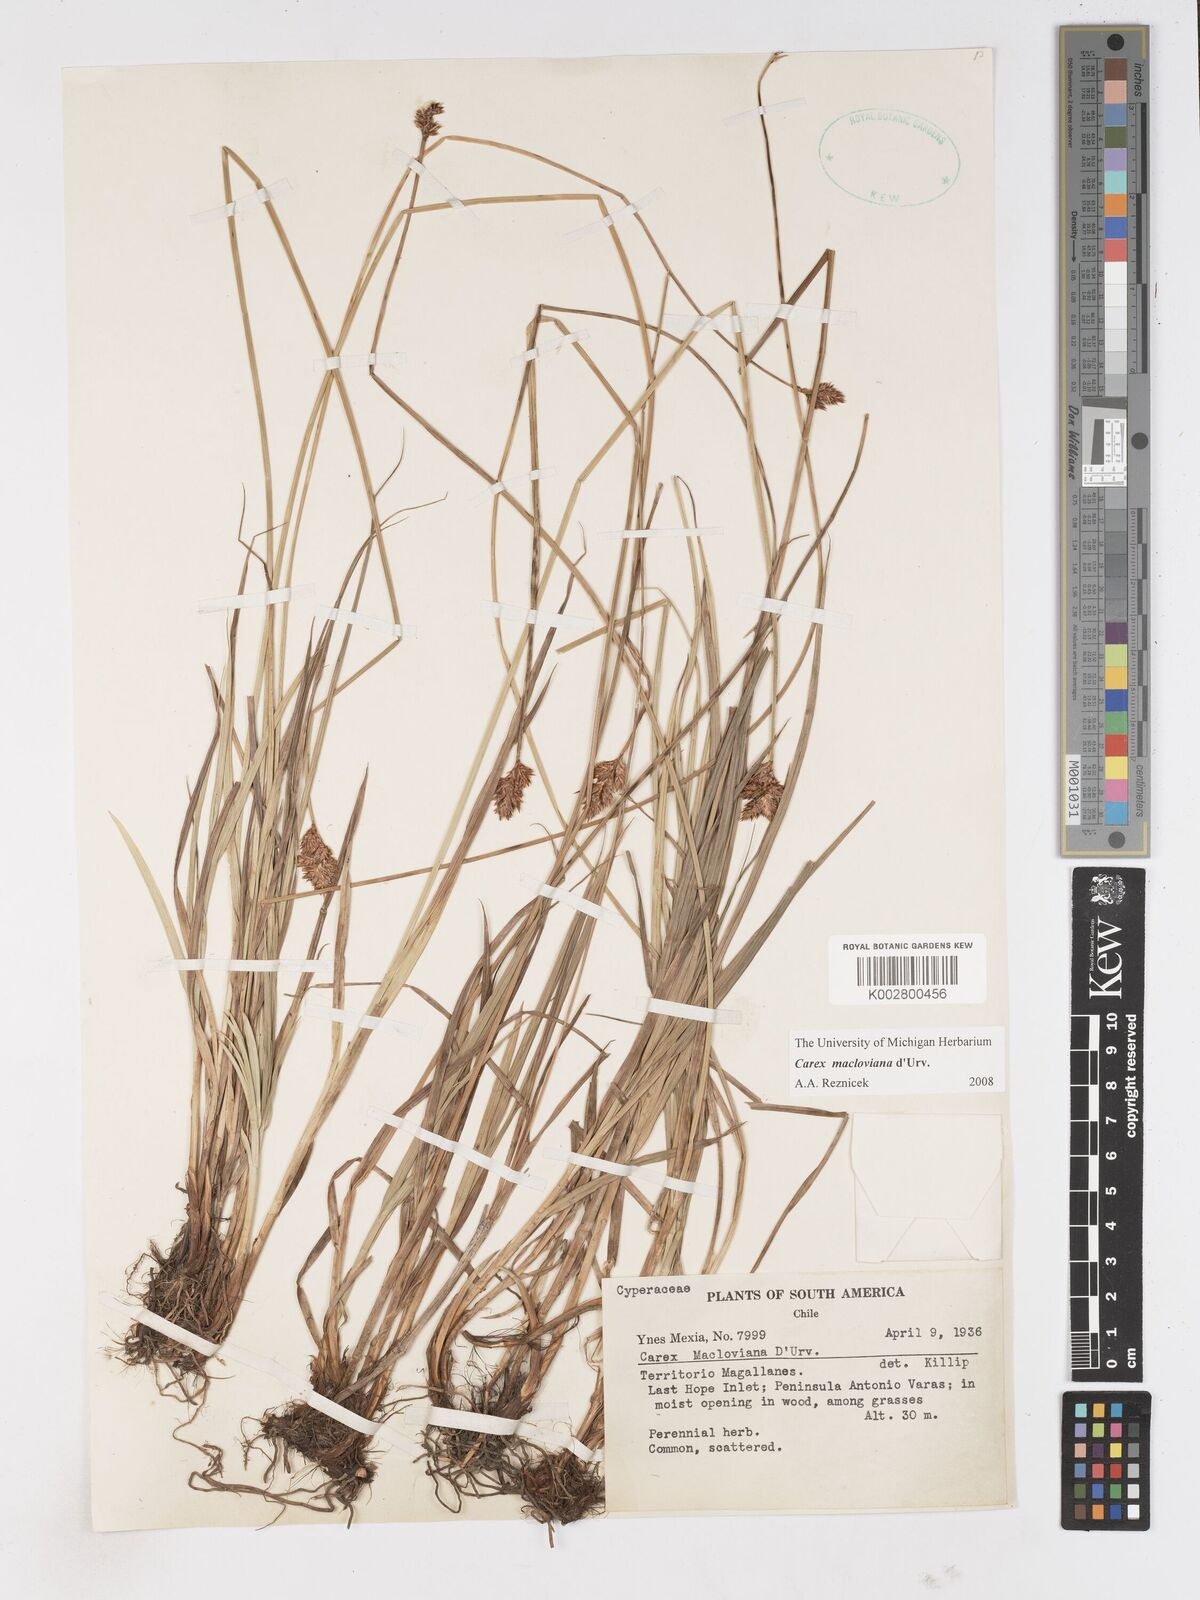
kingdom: Plantae
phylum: Tracheophyta
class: Liliopsida
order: Poales
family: Cyperaceae
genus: Carex
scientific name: Carex macloviana
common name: Falkland island sedge
